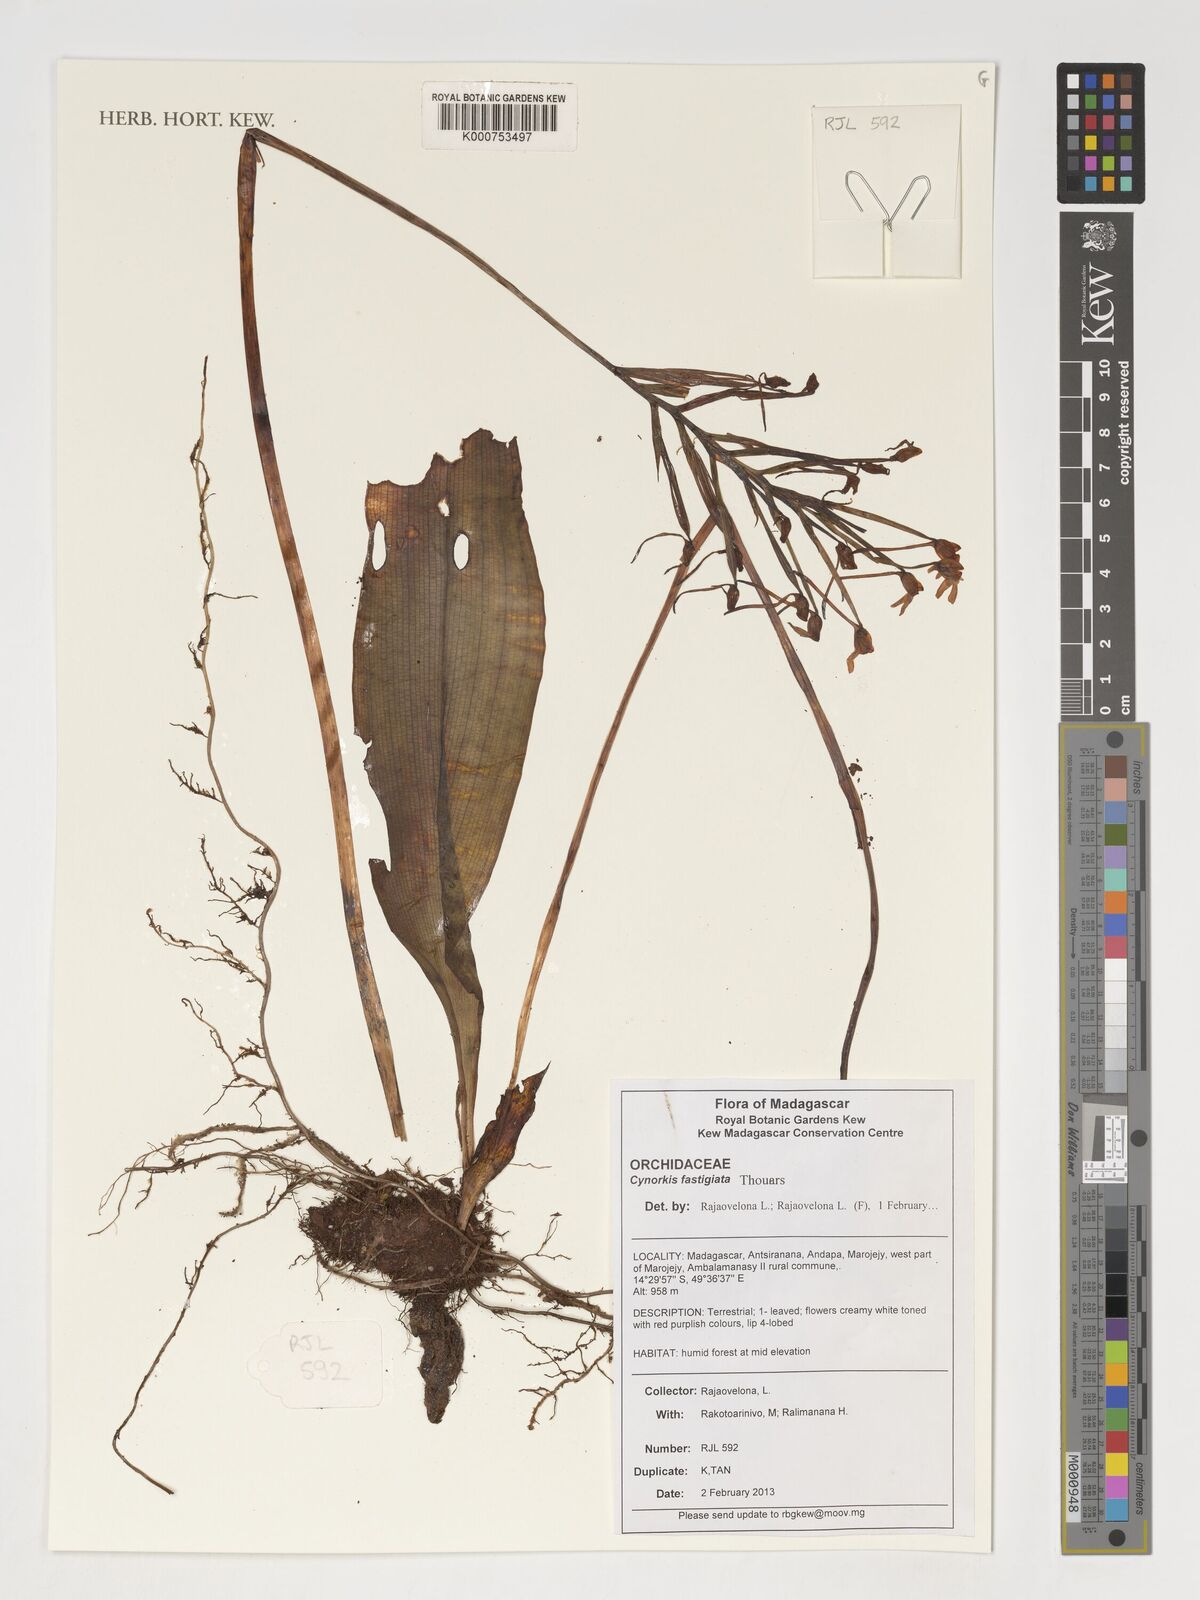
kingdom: Plantae
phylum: Tracheophyta
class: Liliopsida
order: Asparagales
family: Orchidaceae
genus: Cynorkis
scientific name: Cynorkis fastigiata
